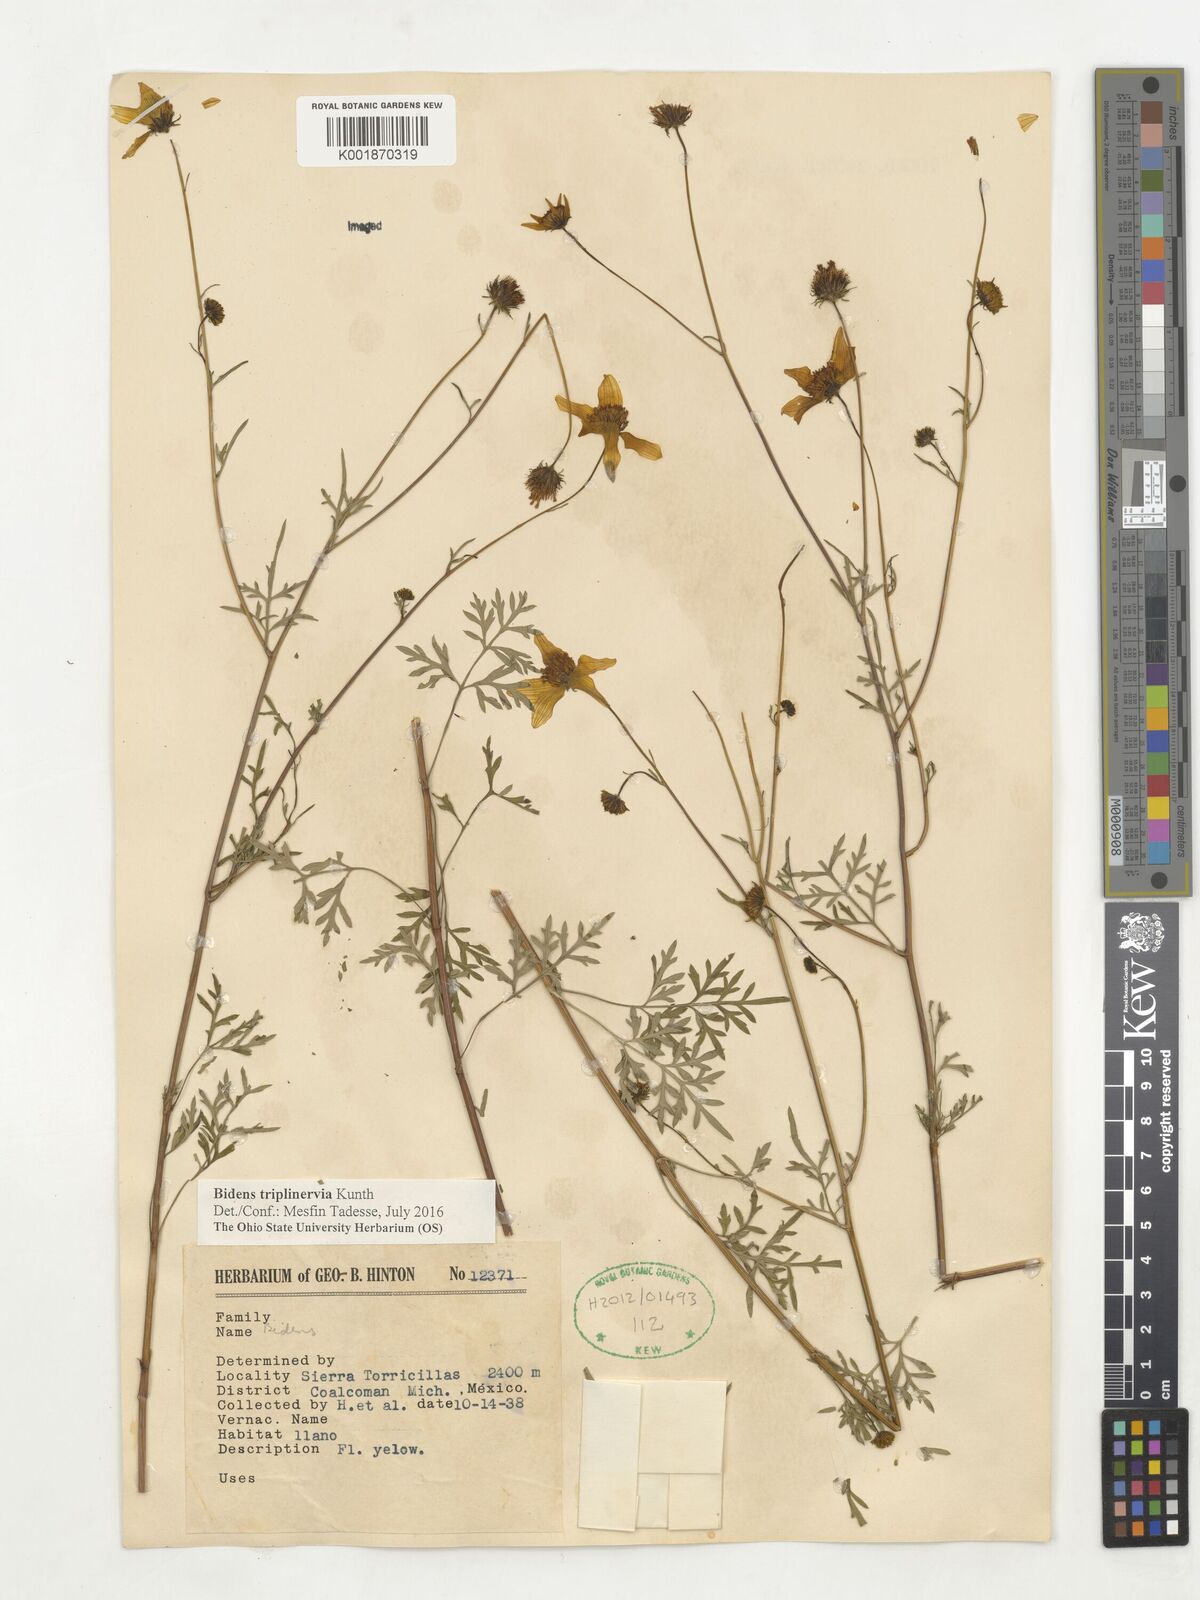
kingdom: Plantae
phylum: Tracheophyta
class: Magnoliopsida
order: Asterales
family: Asteraceae
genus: Bidens
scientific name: Bidens triplinervia
